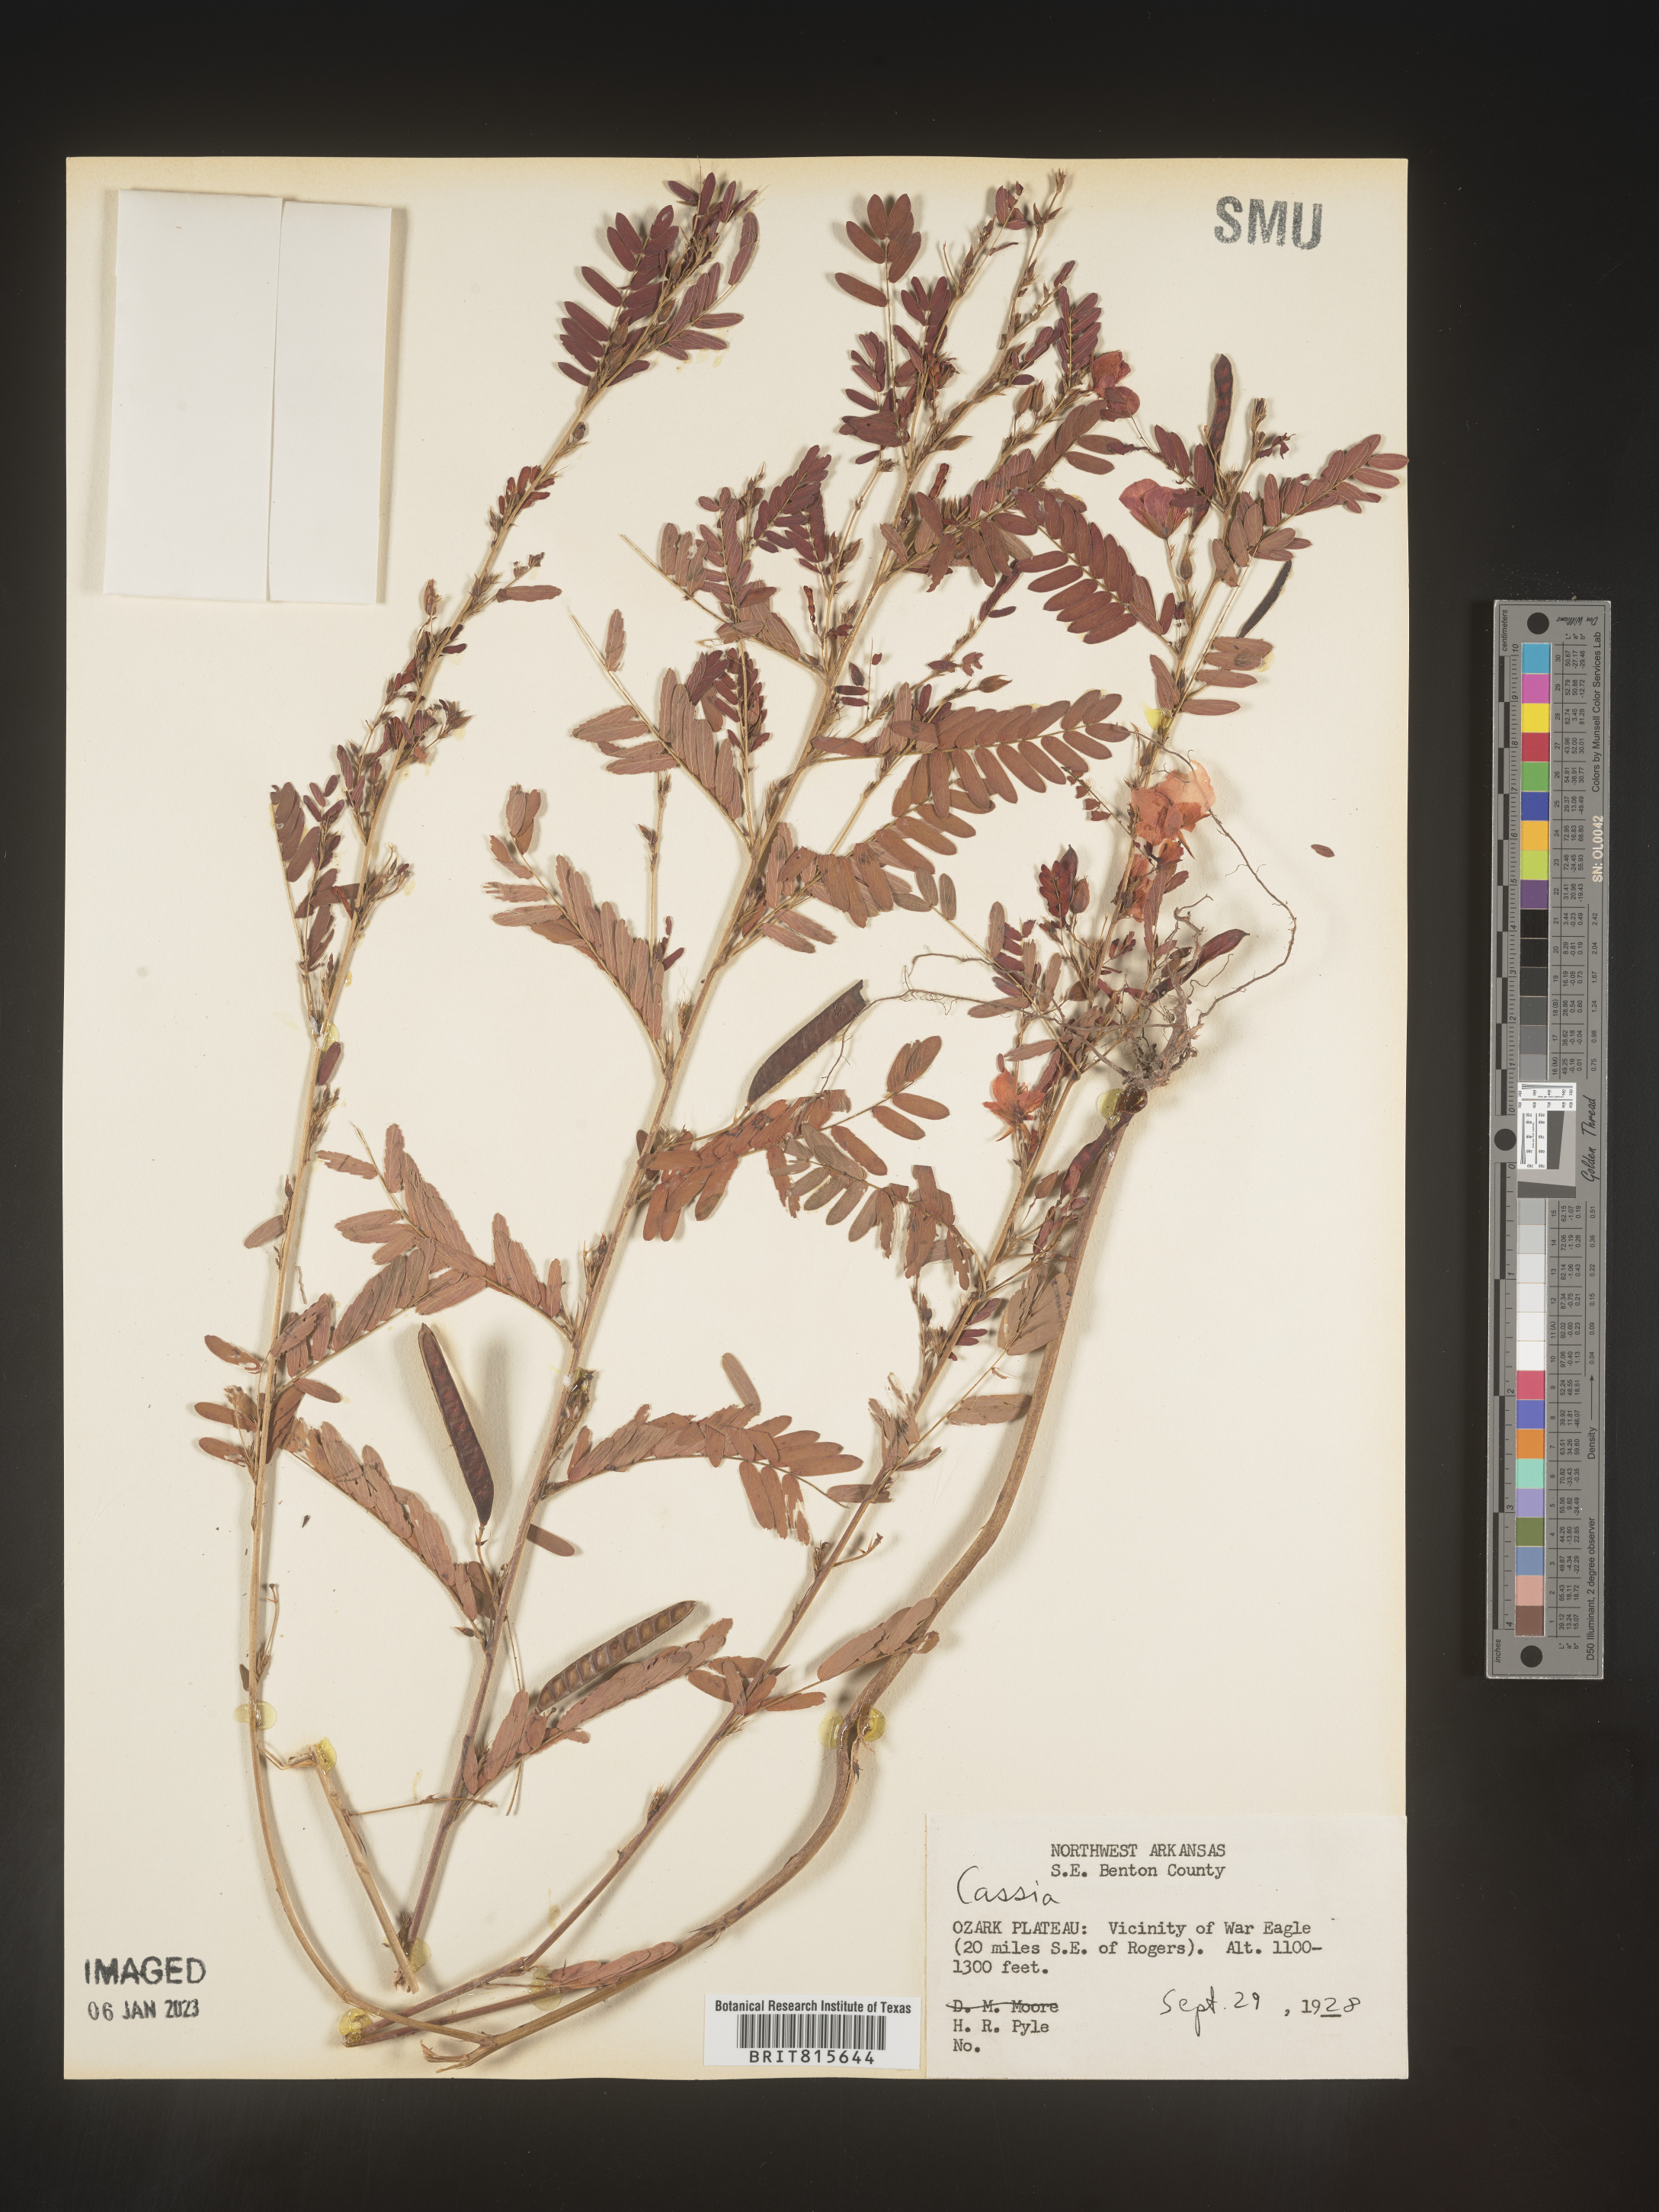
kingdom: Plantae
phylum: Tracheophyta
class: Magnoliopsida
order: Fabales
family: Fabaceae
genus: Cassia
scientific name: Cassia
